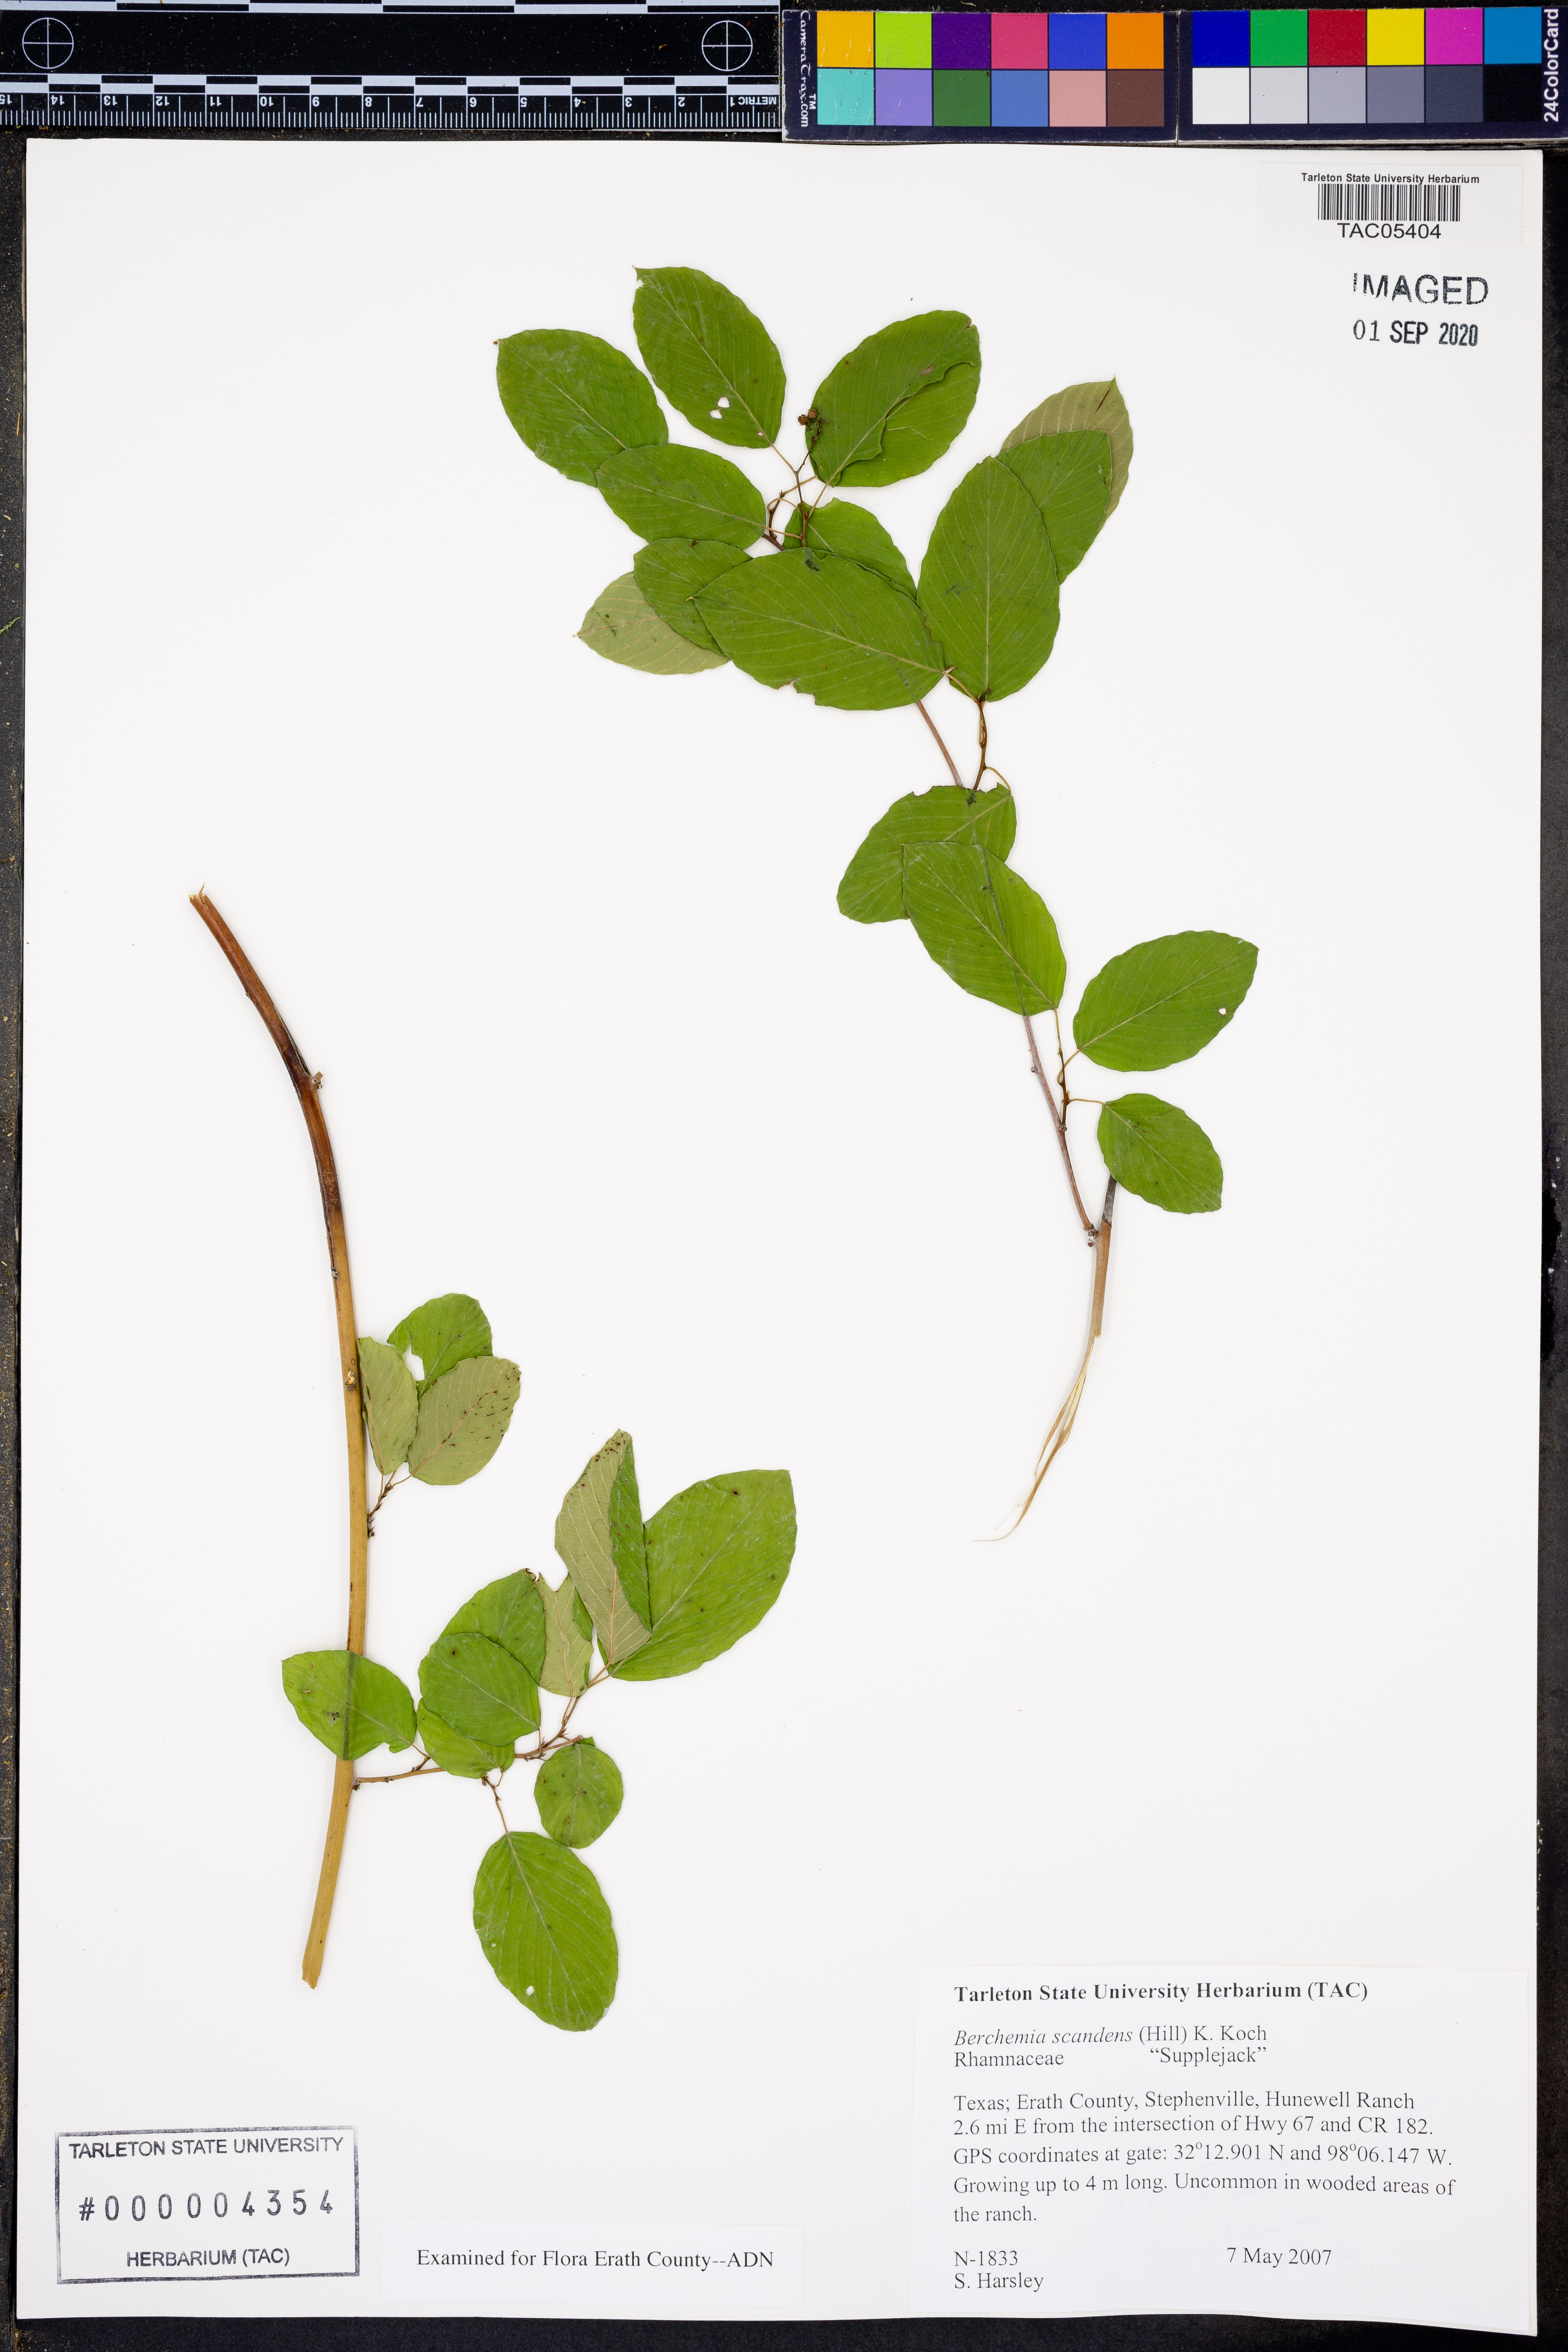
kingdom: Plantae
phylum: Tracheophyta
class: Magnoliopsida
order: Rosales
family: Rhamnaceae
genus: Berchemia
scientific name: Berchemia scandens
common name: Supplejack
